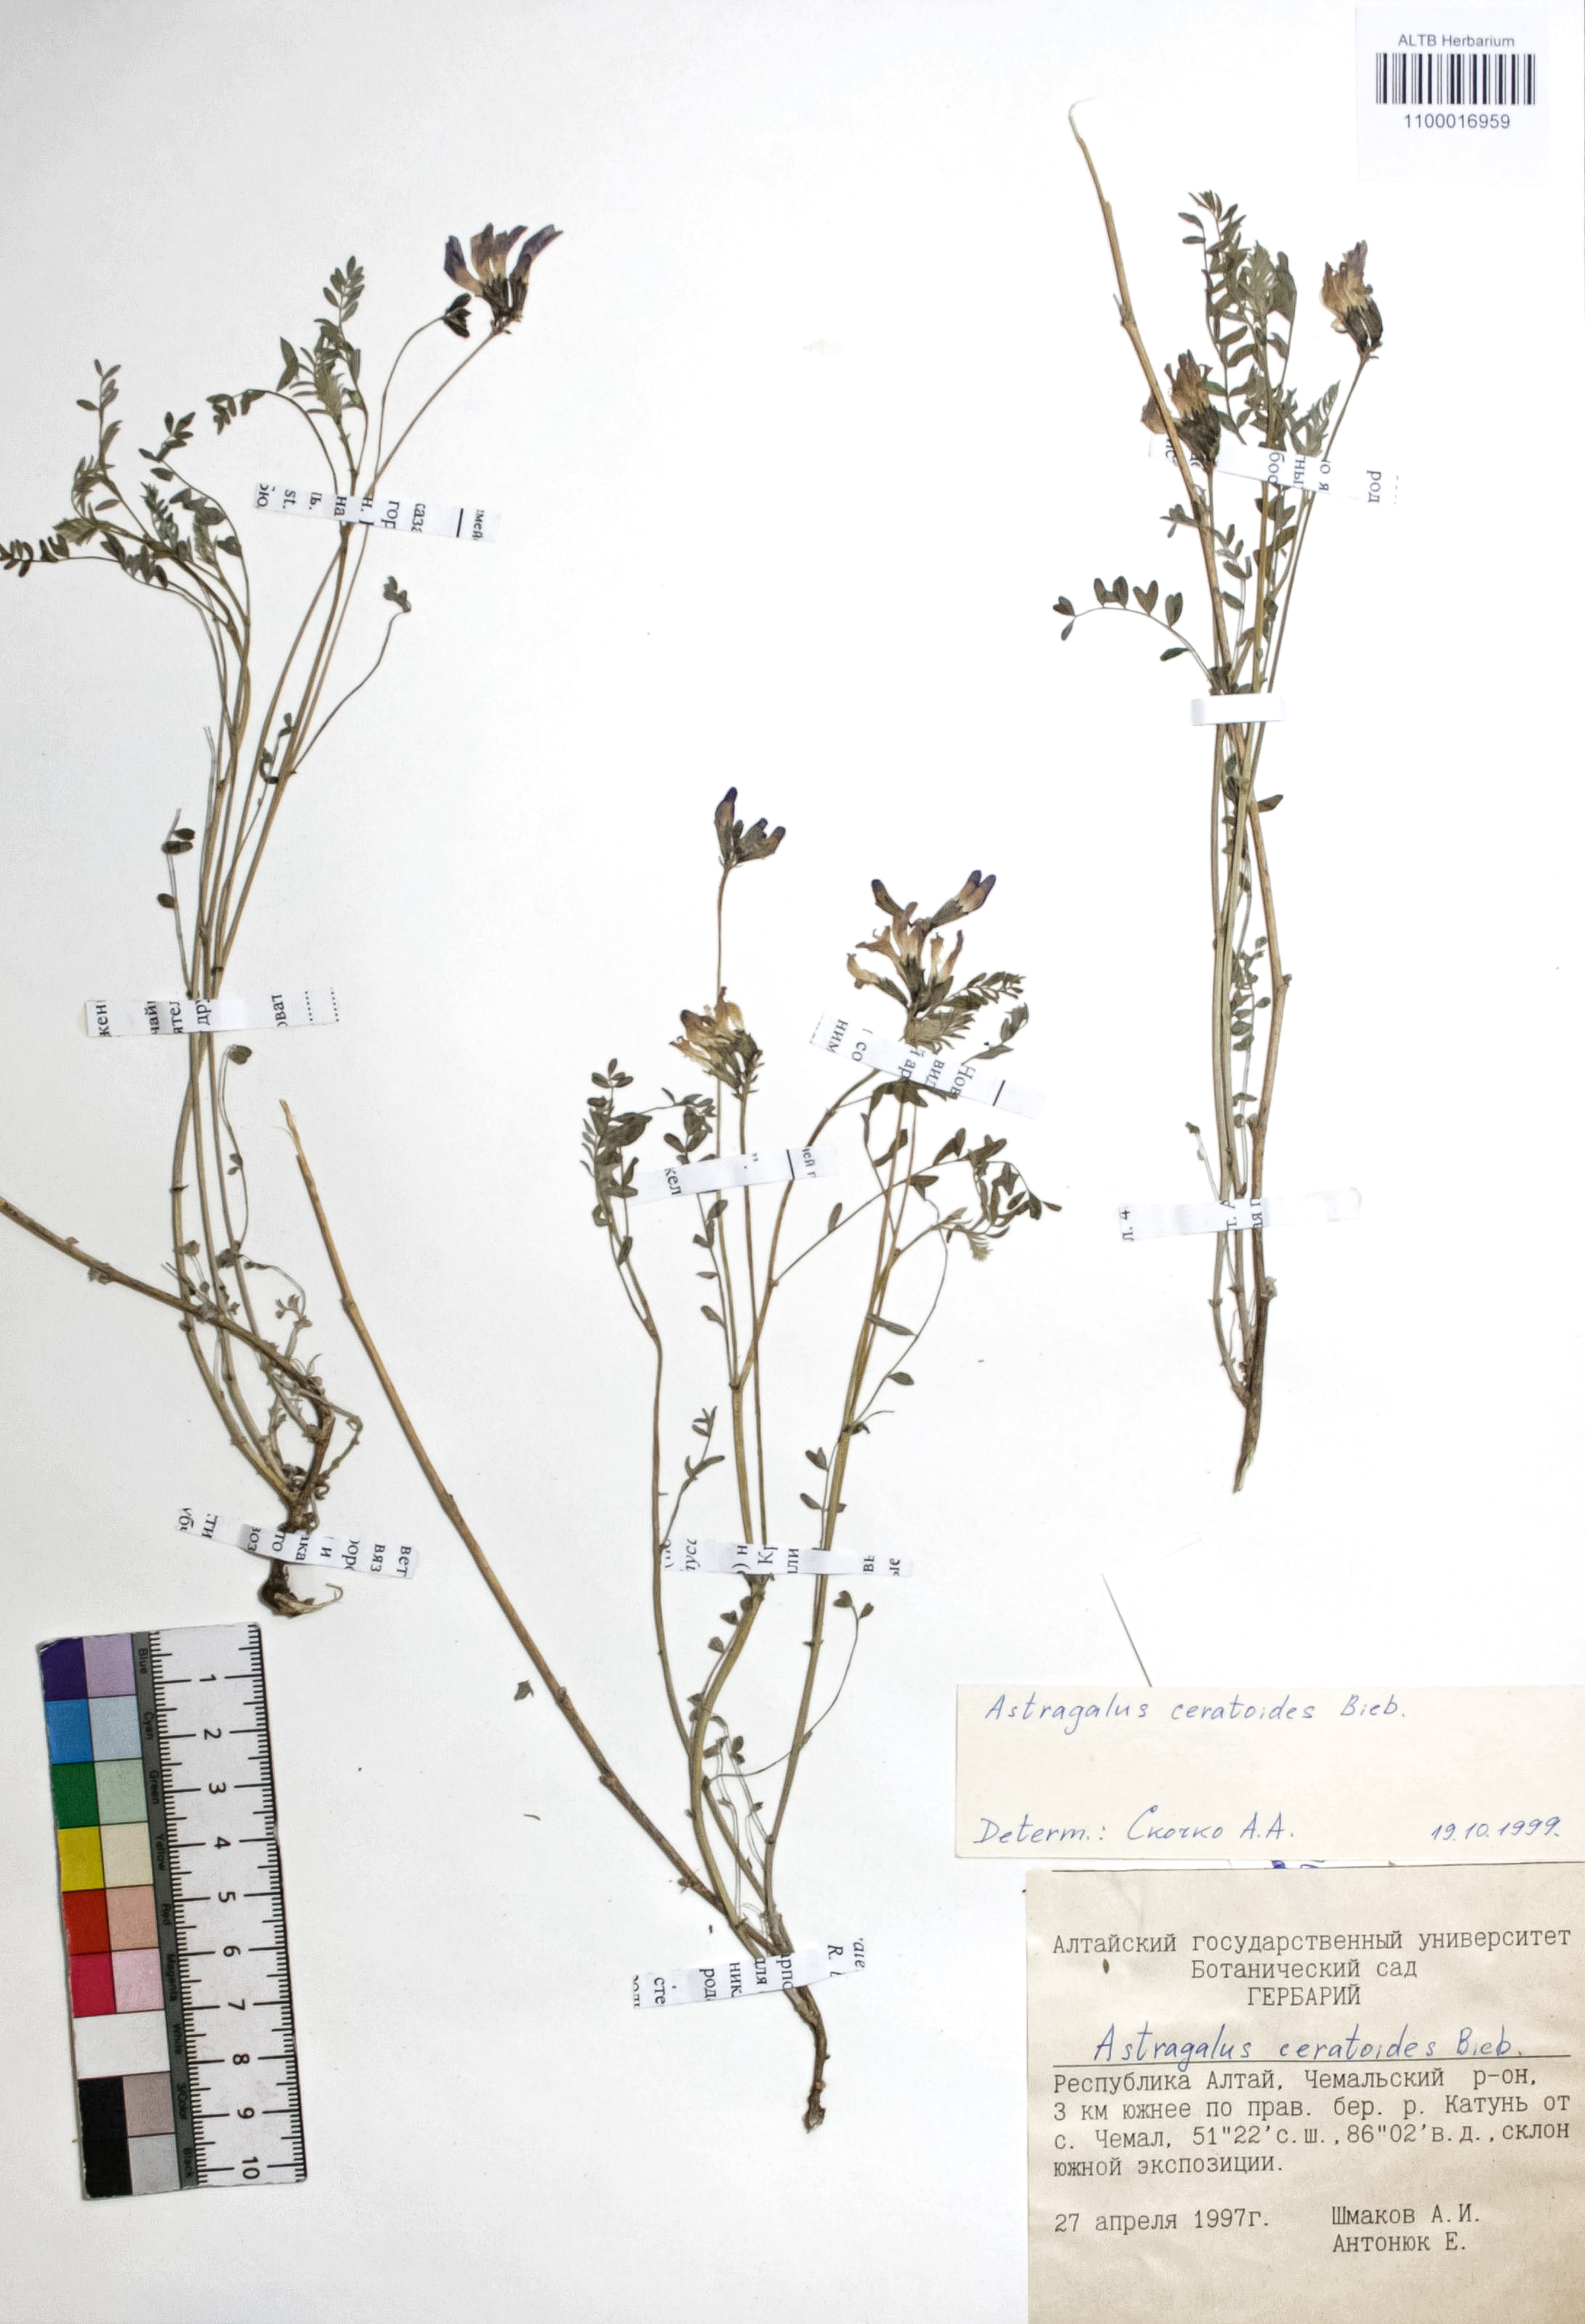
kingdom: Plantae
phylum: Tracheophyta
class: Magnoliopsida
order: Fabales
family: Fabaceae
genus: Astragalus
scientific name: Astragalus ceratoides
